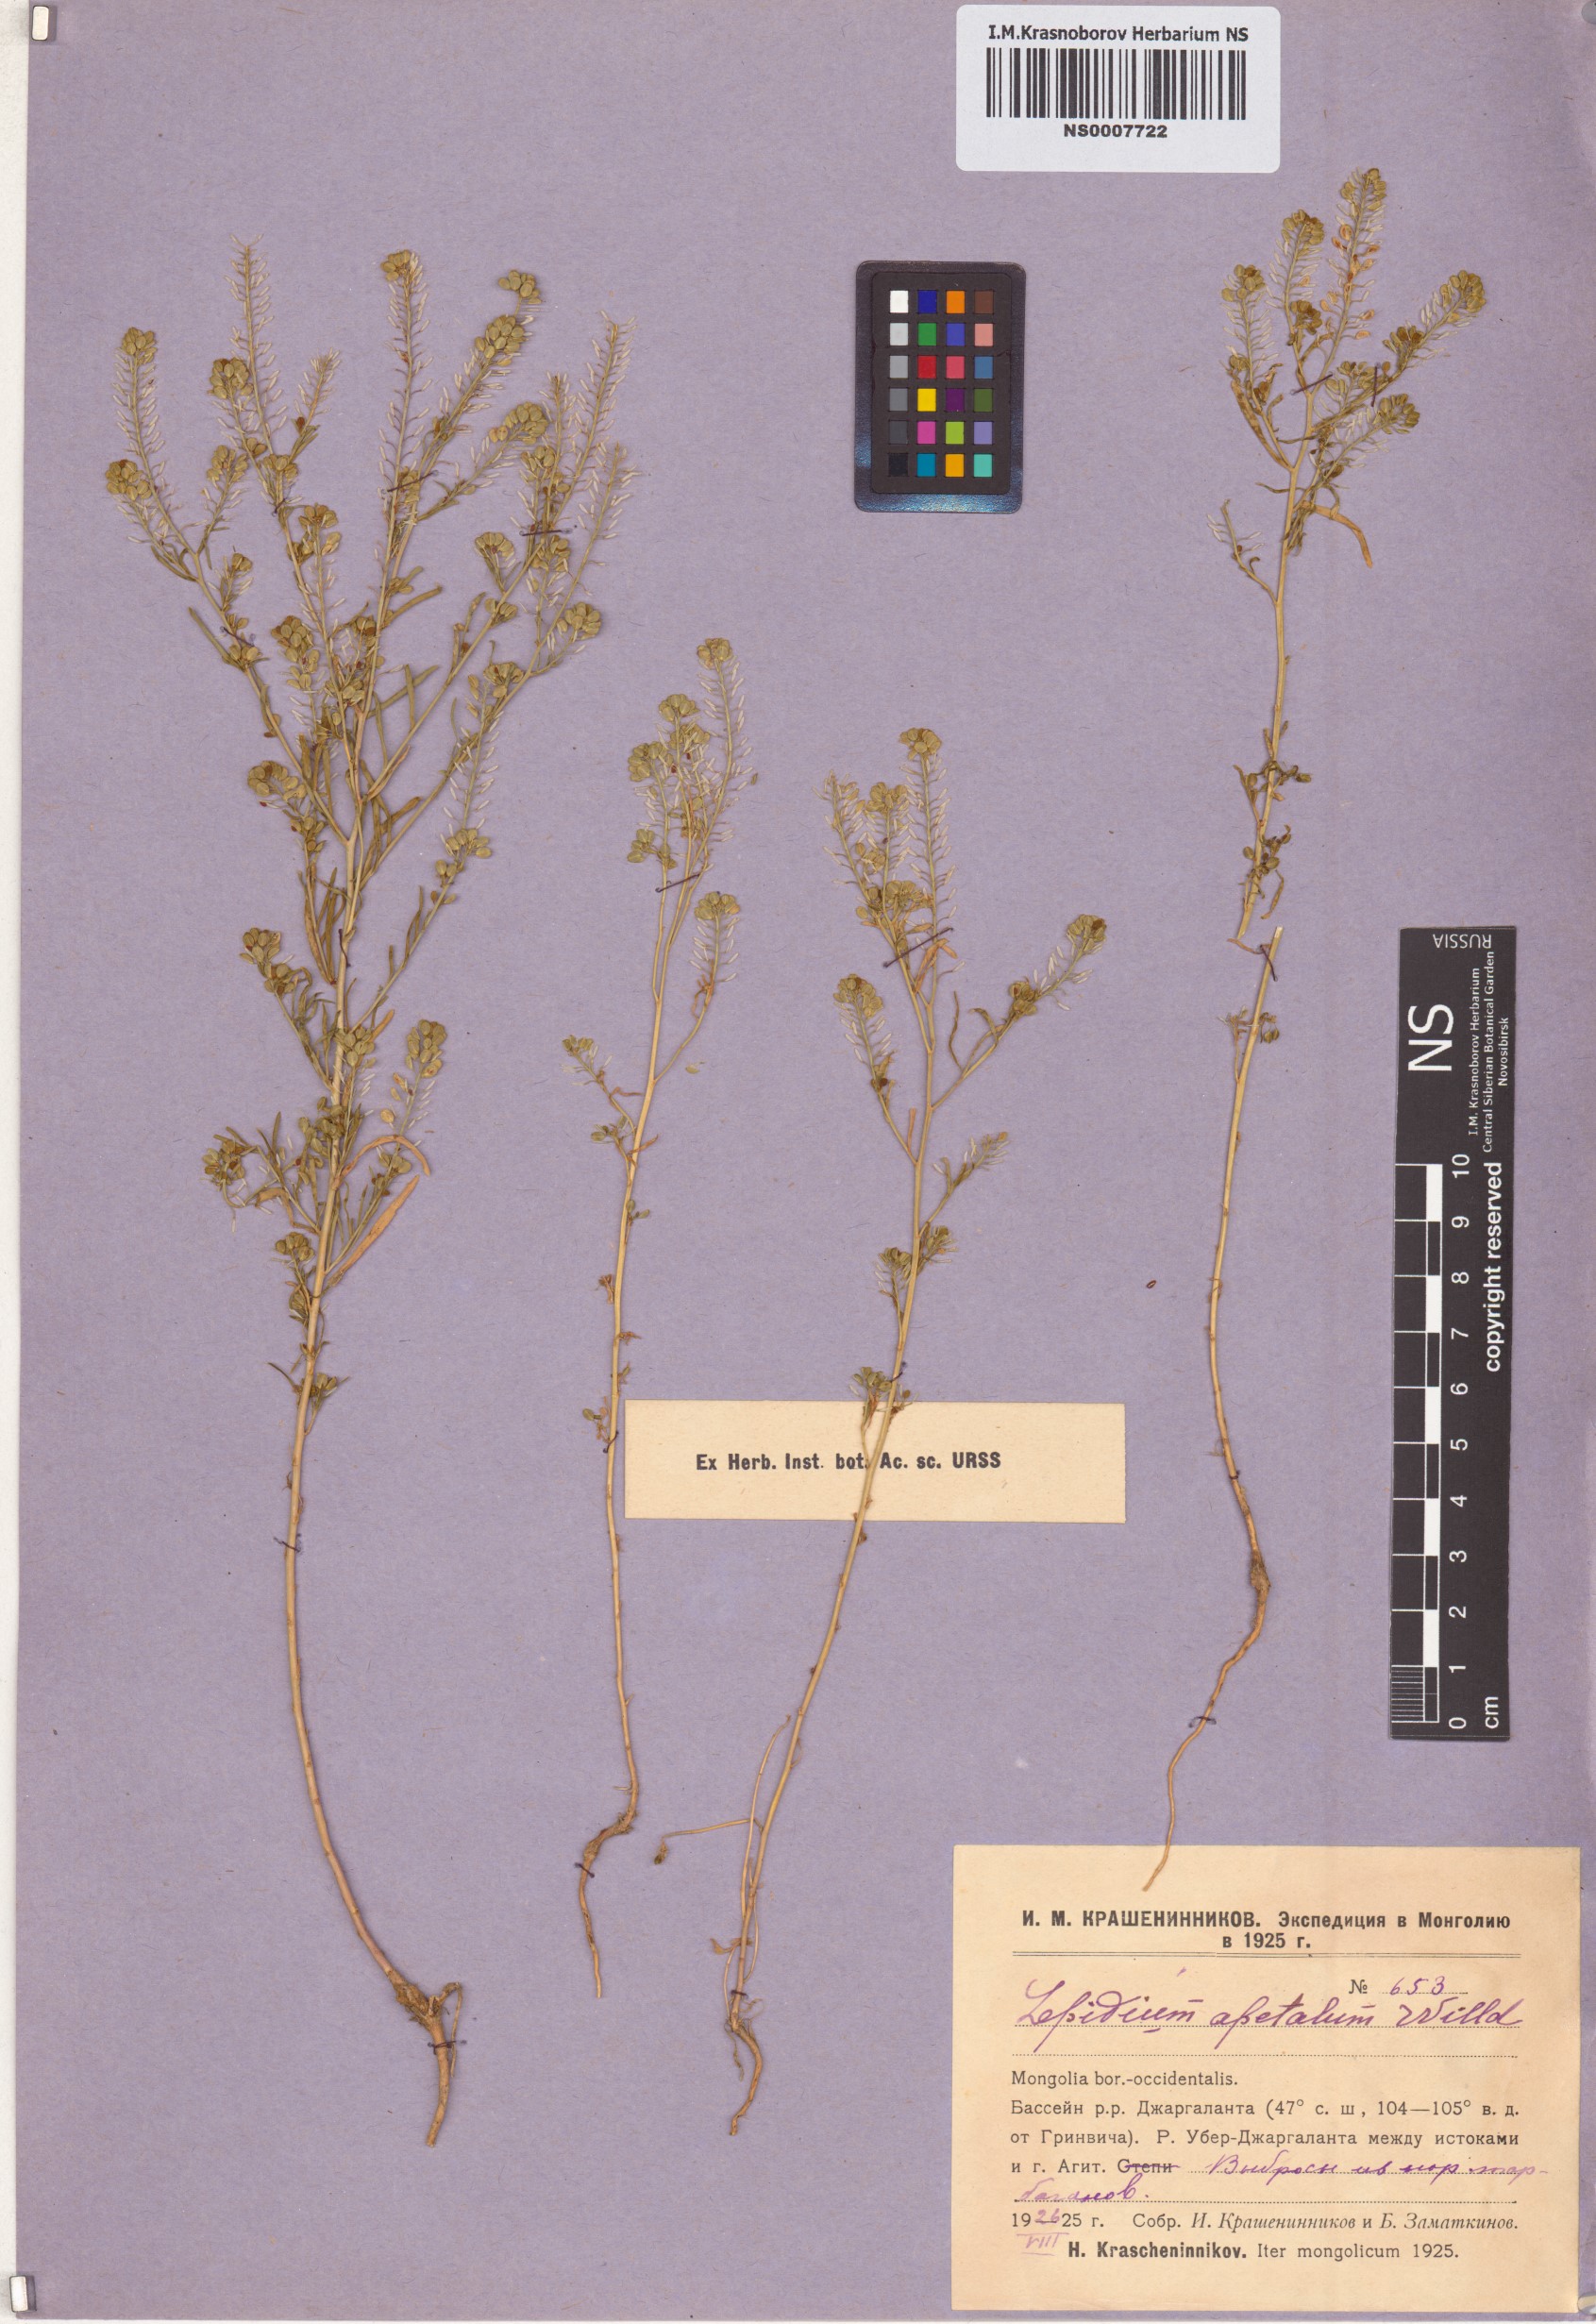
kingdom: Plantae
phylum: Tracheophyta
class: Magnoliopsida
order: Brassicales
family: Brassicaceae
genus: Lepidium
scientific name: Lepidium apetalum
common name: Pepperweed
